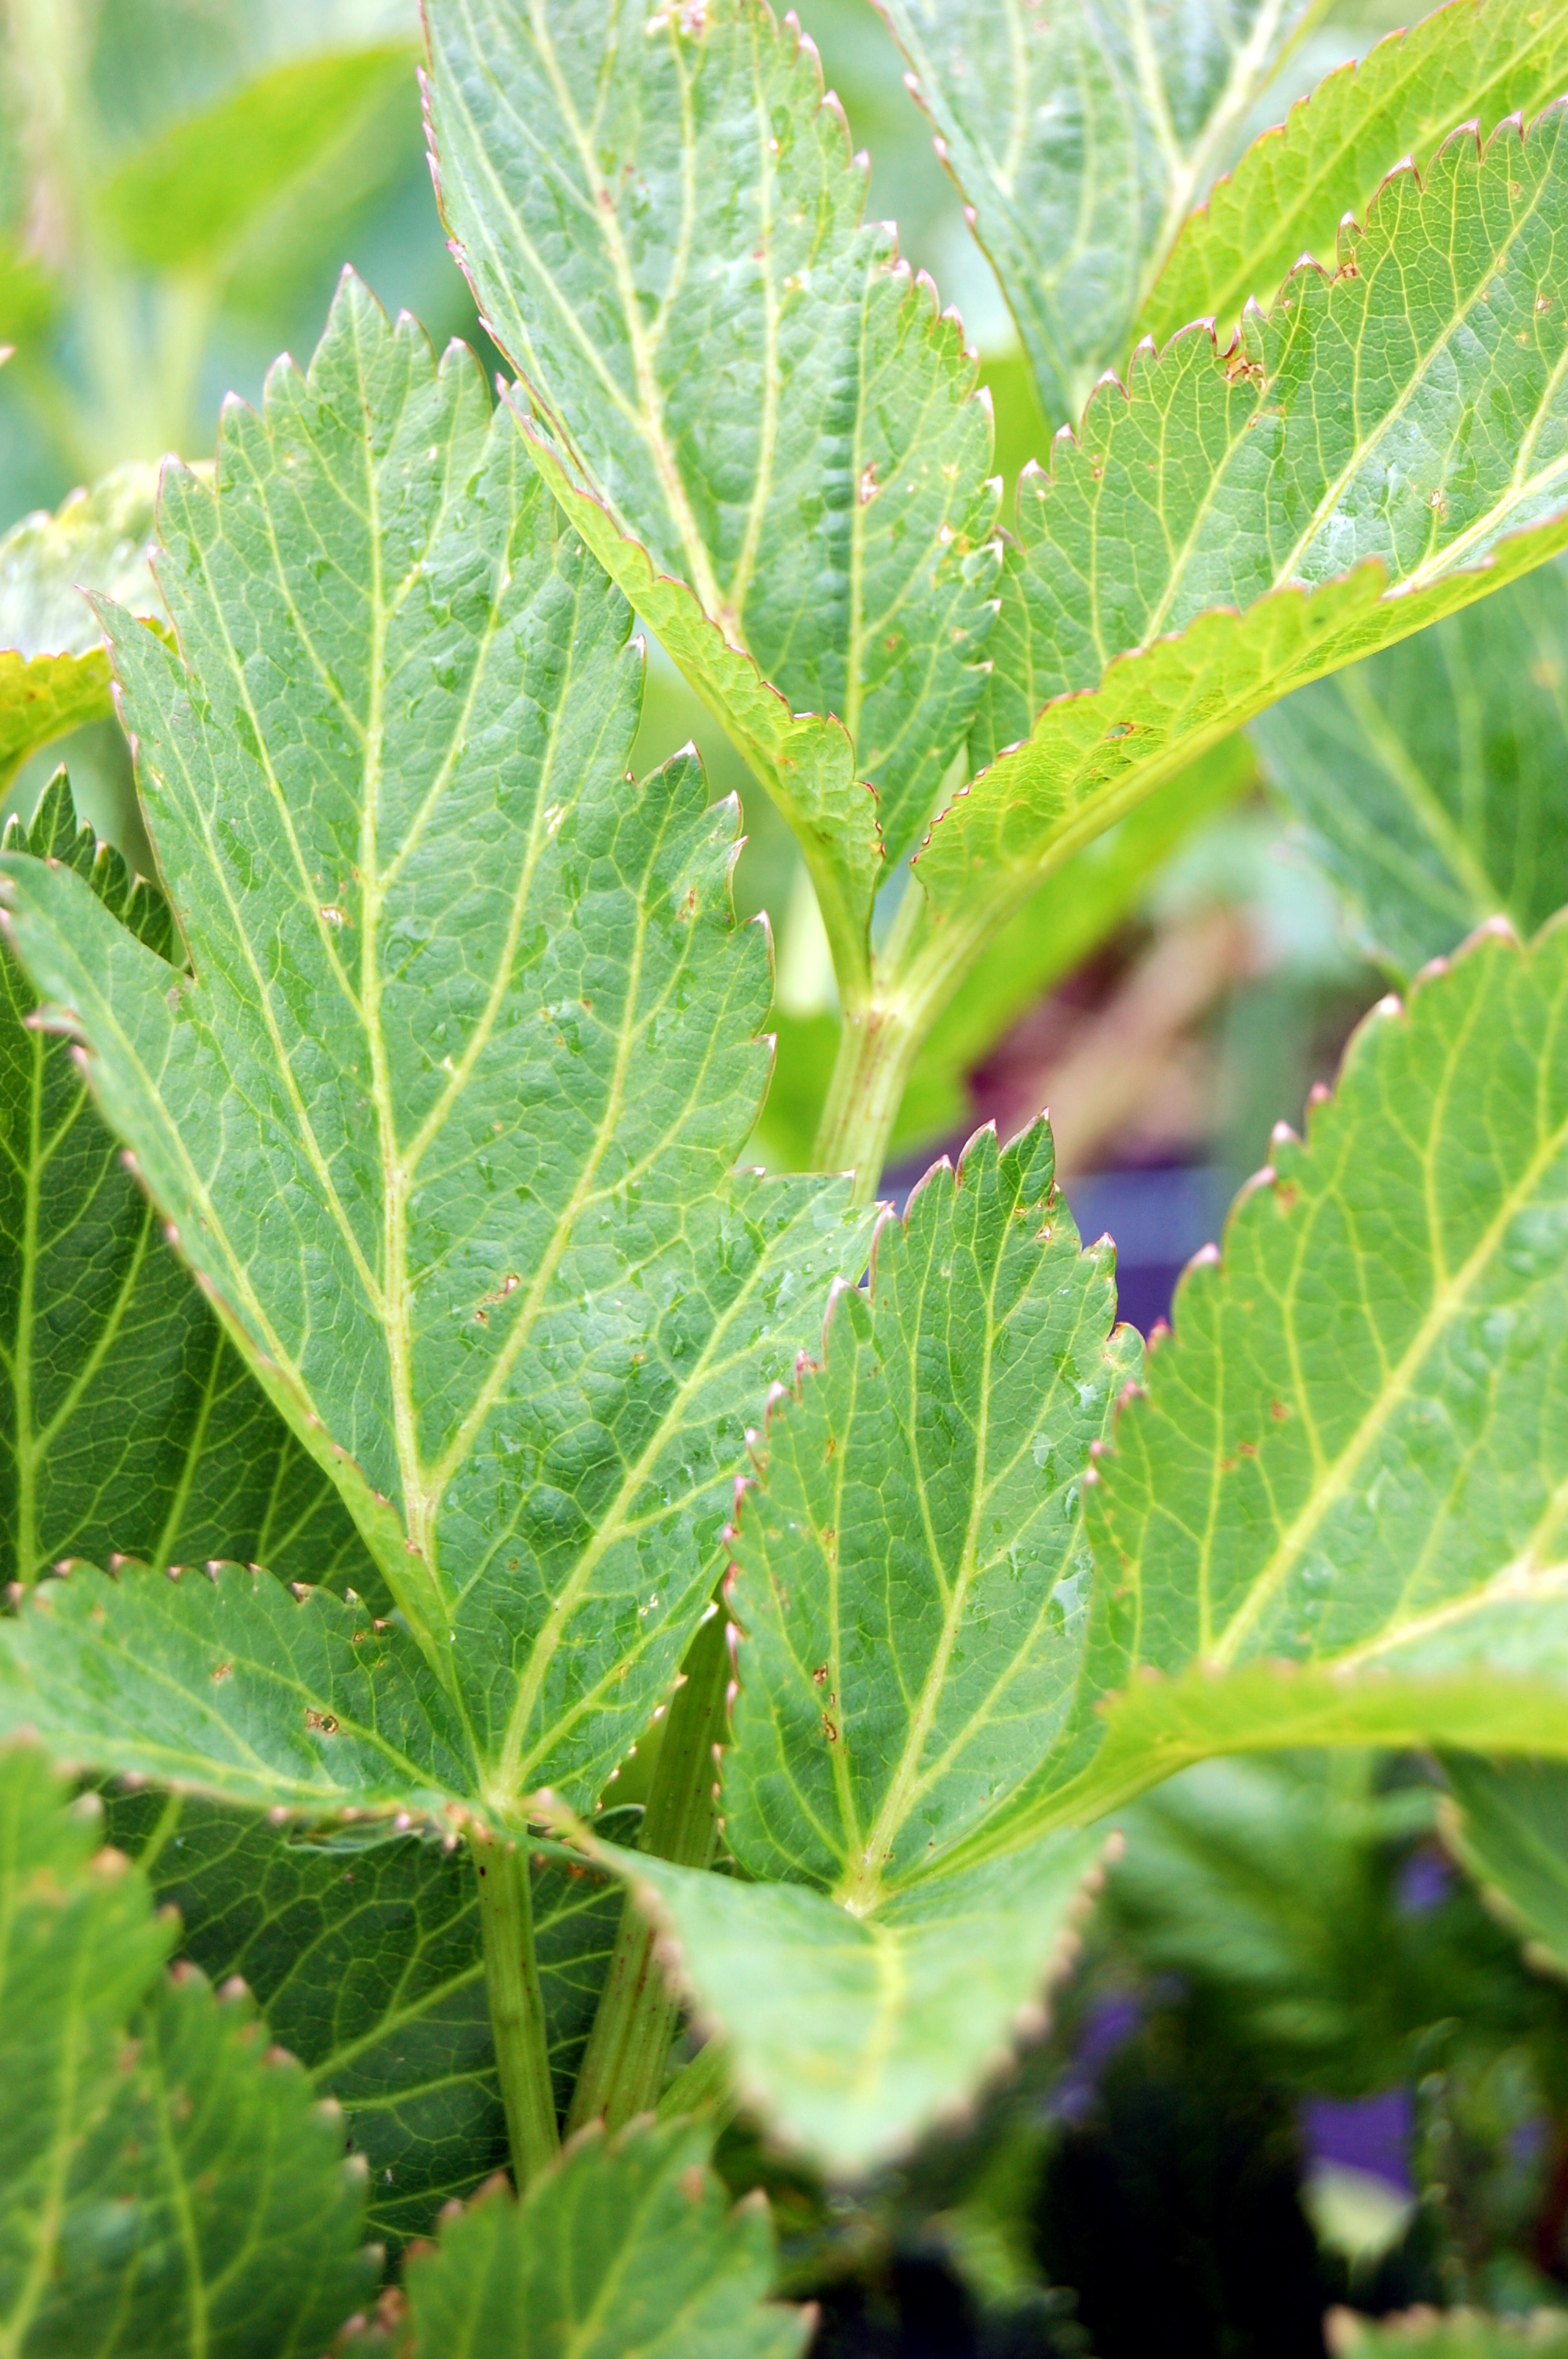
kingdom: Plantae
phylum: Tracheophyta
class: Magnoliopsida
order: Apiales
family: Apiaceae
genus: Angelica
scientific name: Angelica archangelica
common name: Garden angelica
